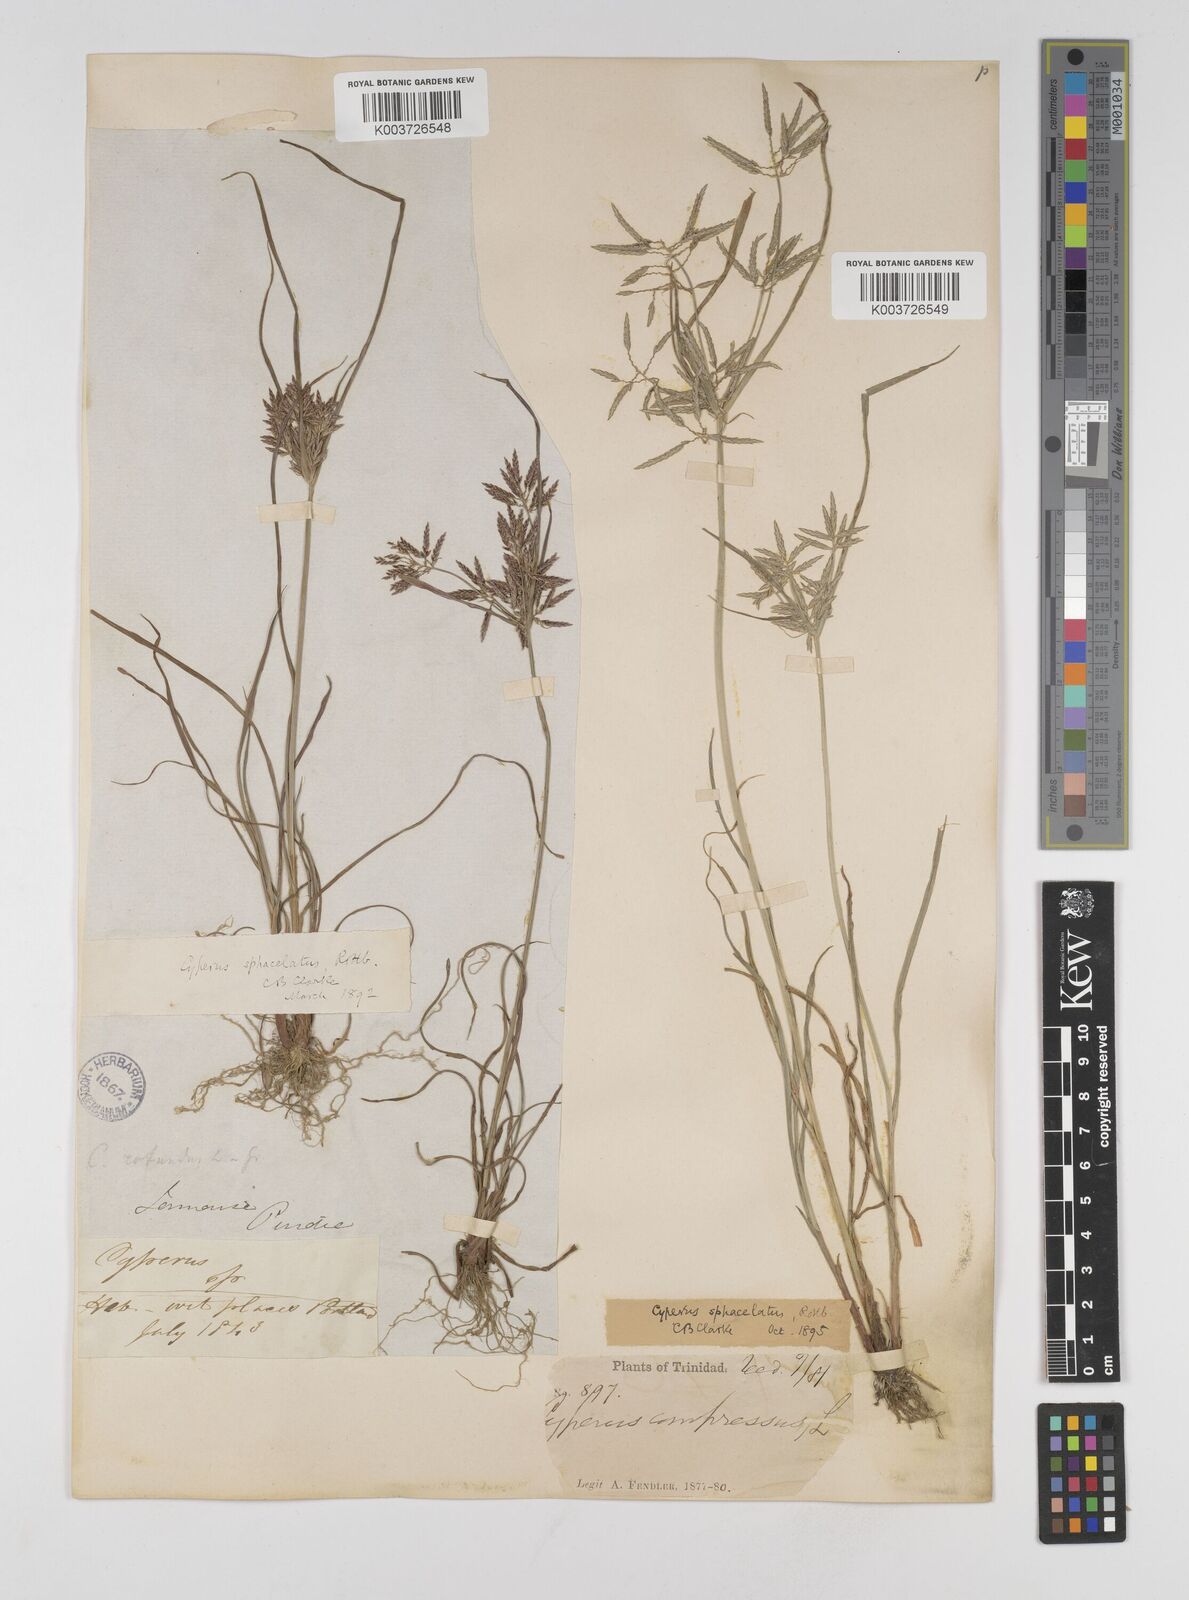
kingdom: Plantae
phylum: Tracheophyta
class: Liliopsida
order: Poales
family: Cyperaceae
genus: Cyperus
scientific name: Cyperus sphacelatus
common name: Roadside flatsedge
